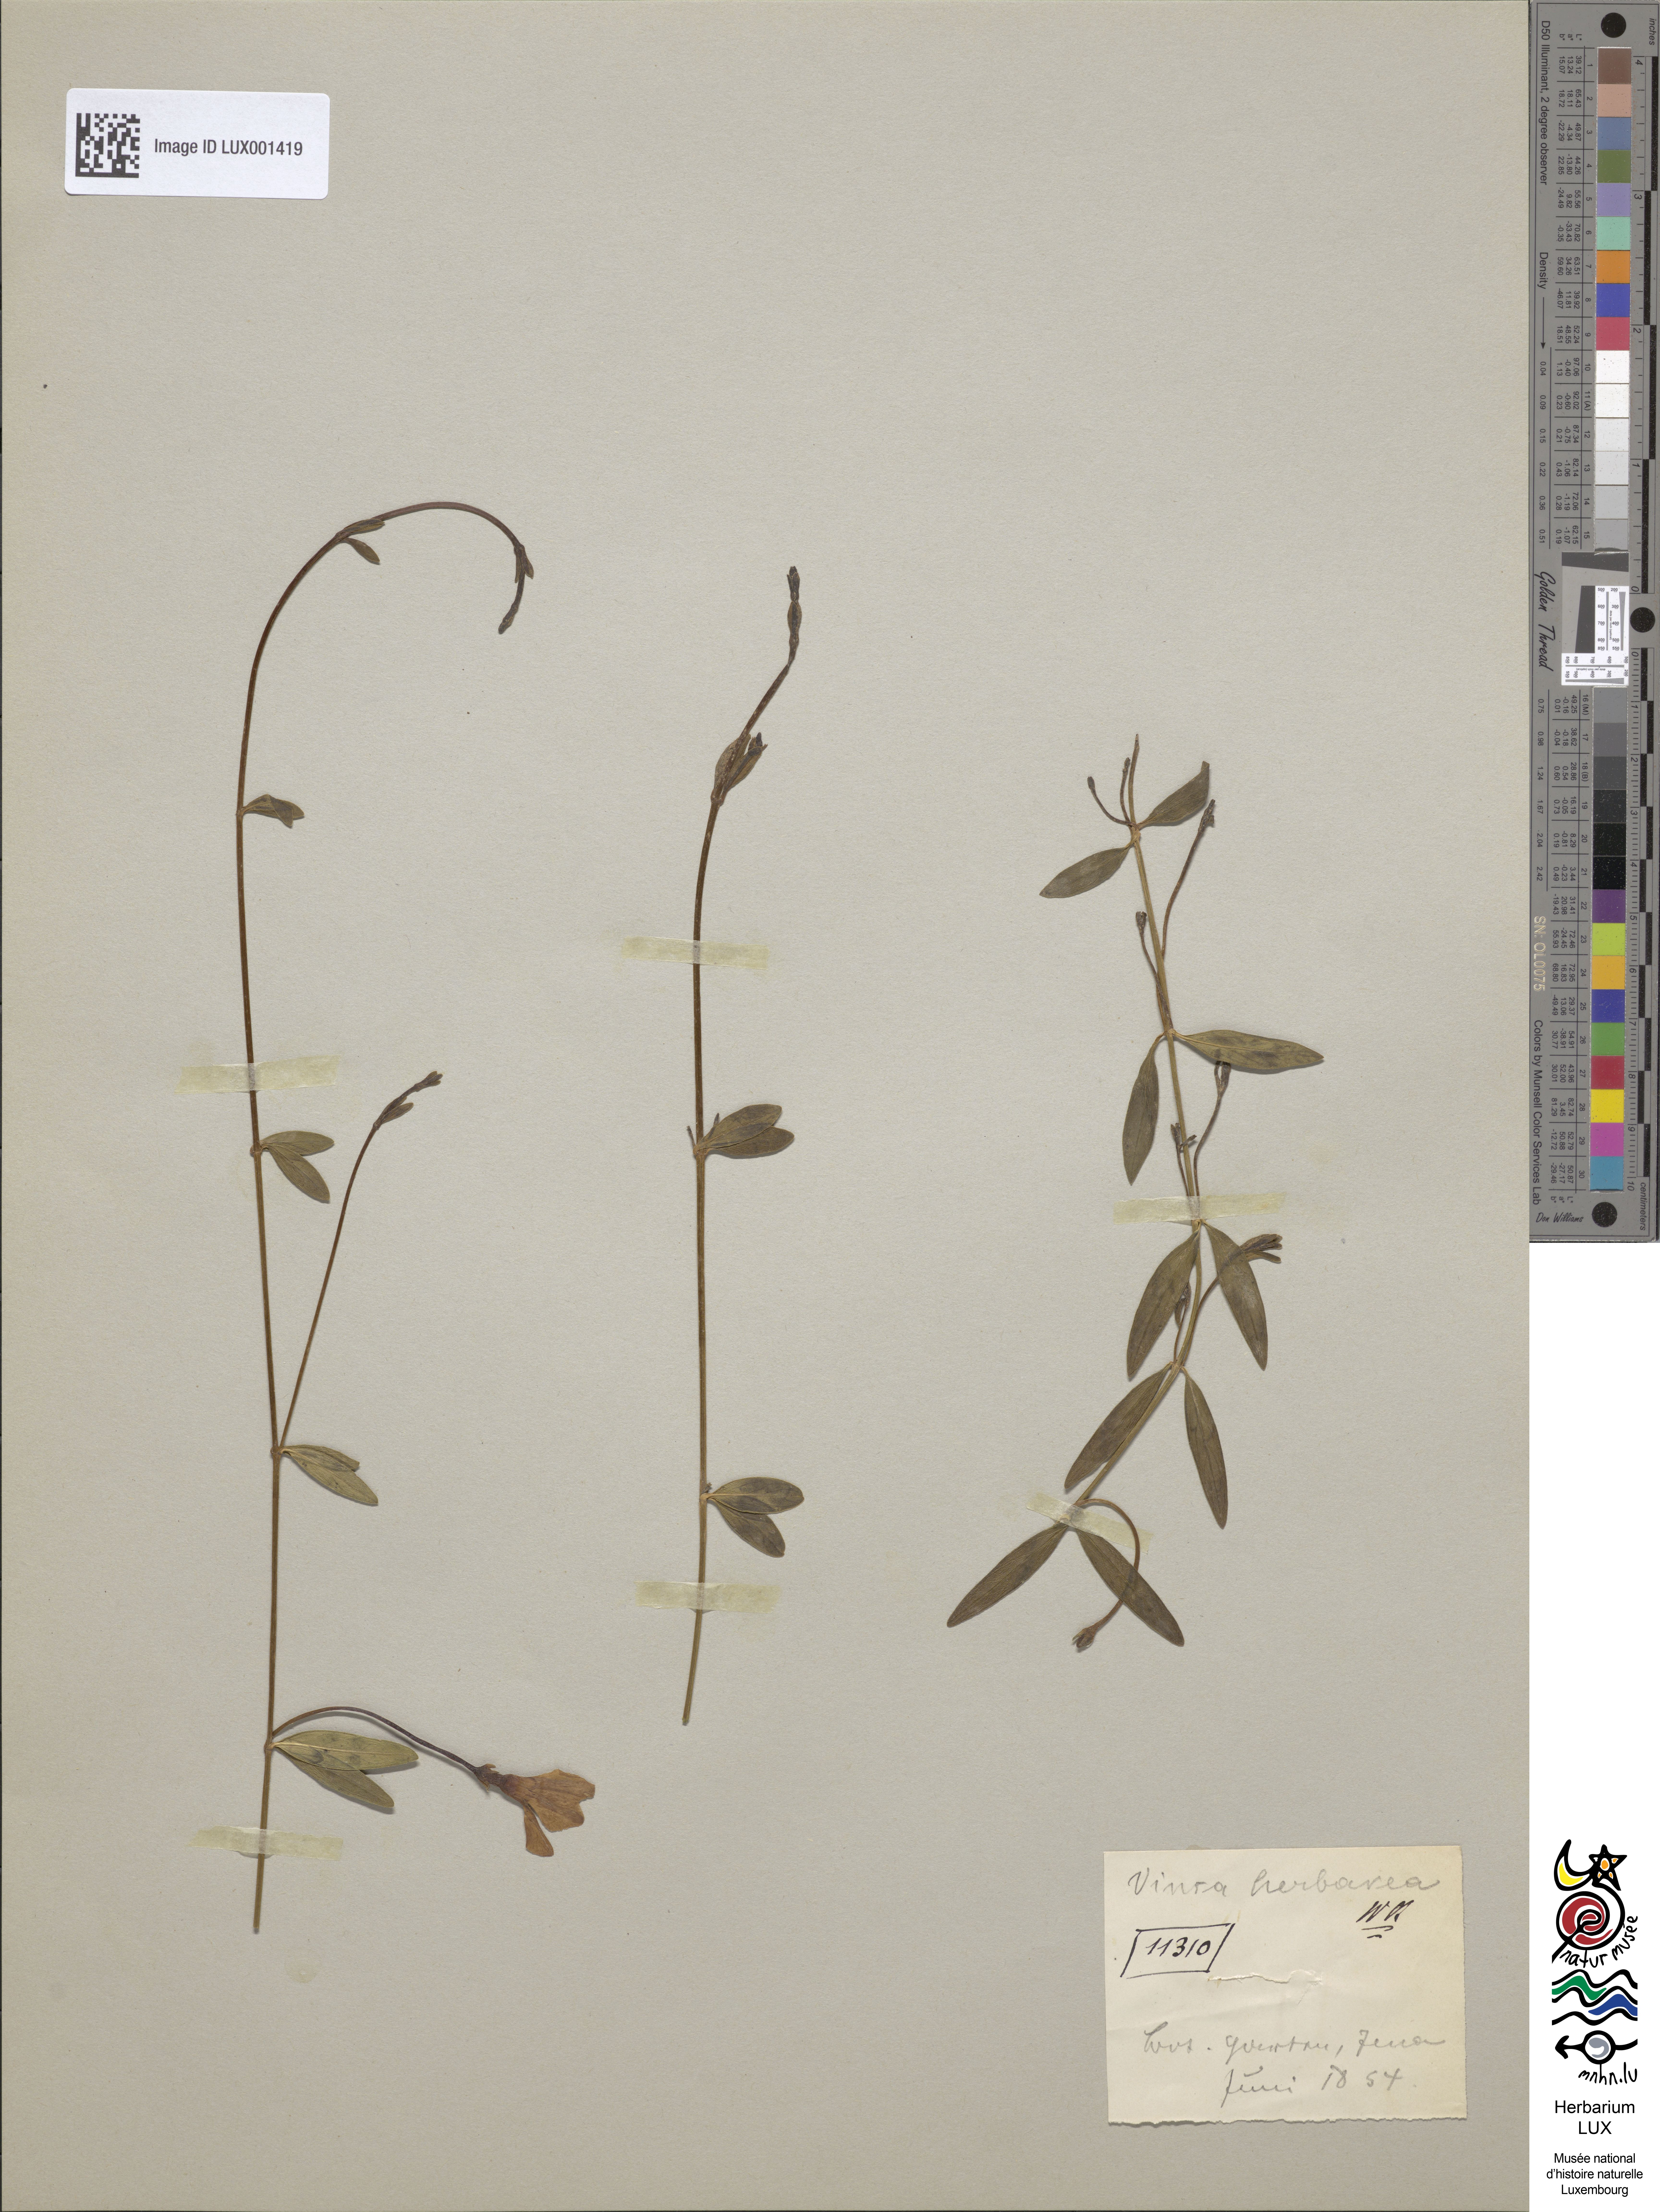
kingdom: Plantae
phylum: Tracheophyta
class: Magnoliopsida
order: Gentianales
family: Apocynaceae
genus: Vinca
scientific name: Vinca herbacea
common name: Herbaceous periwinkle
